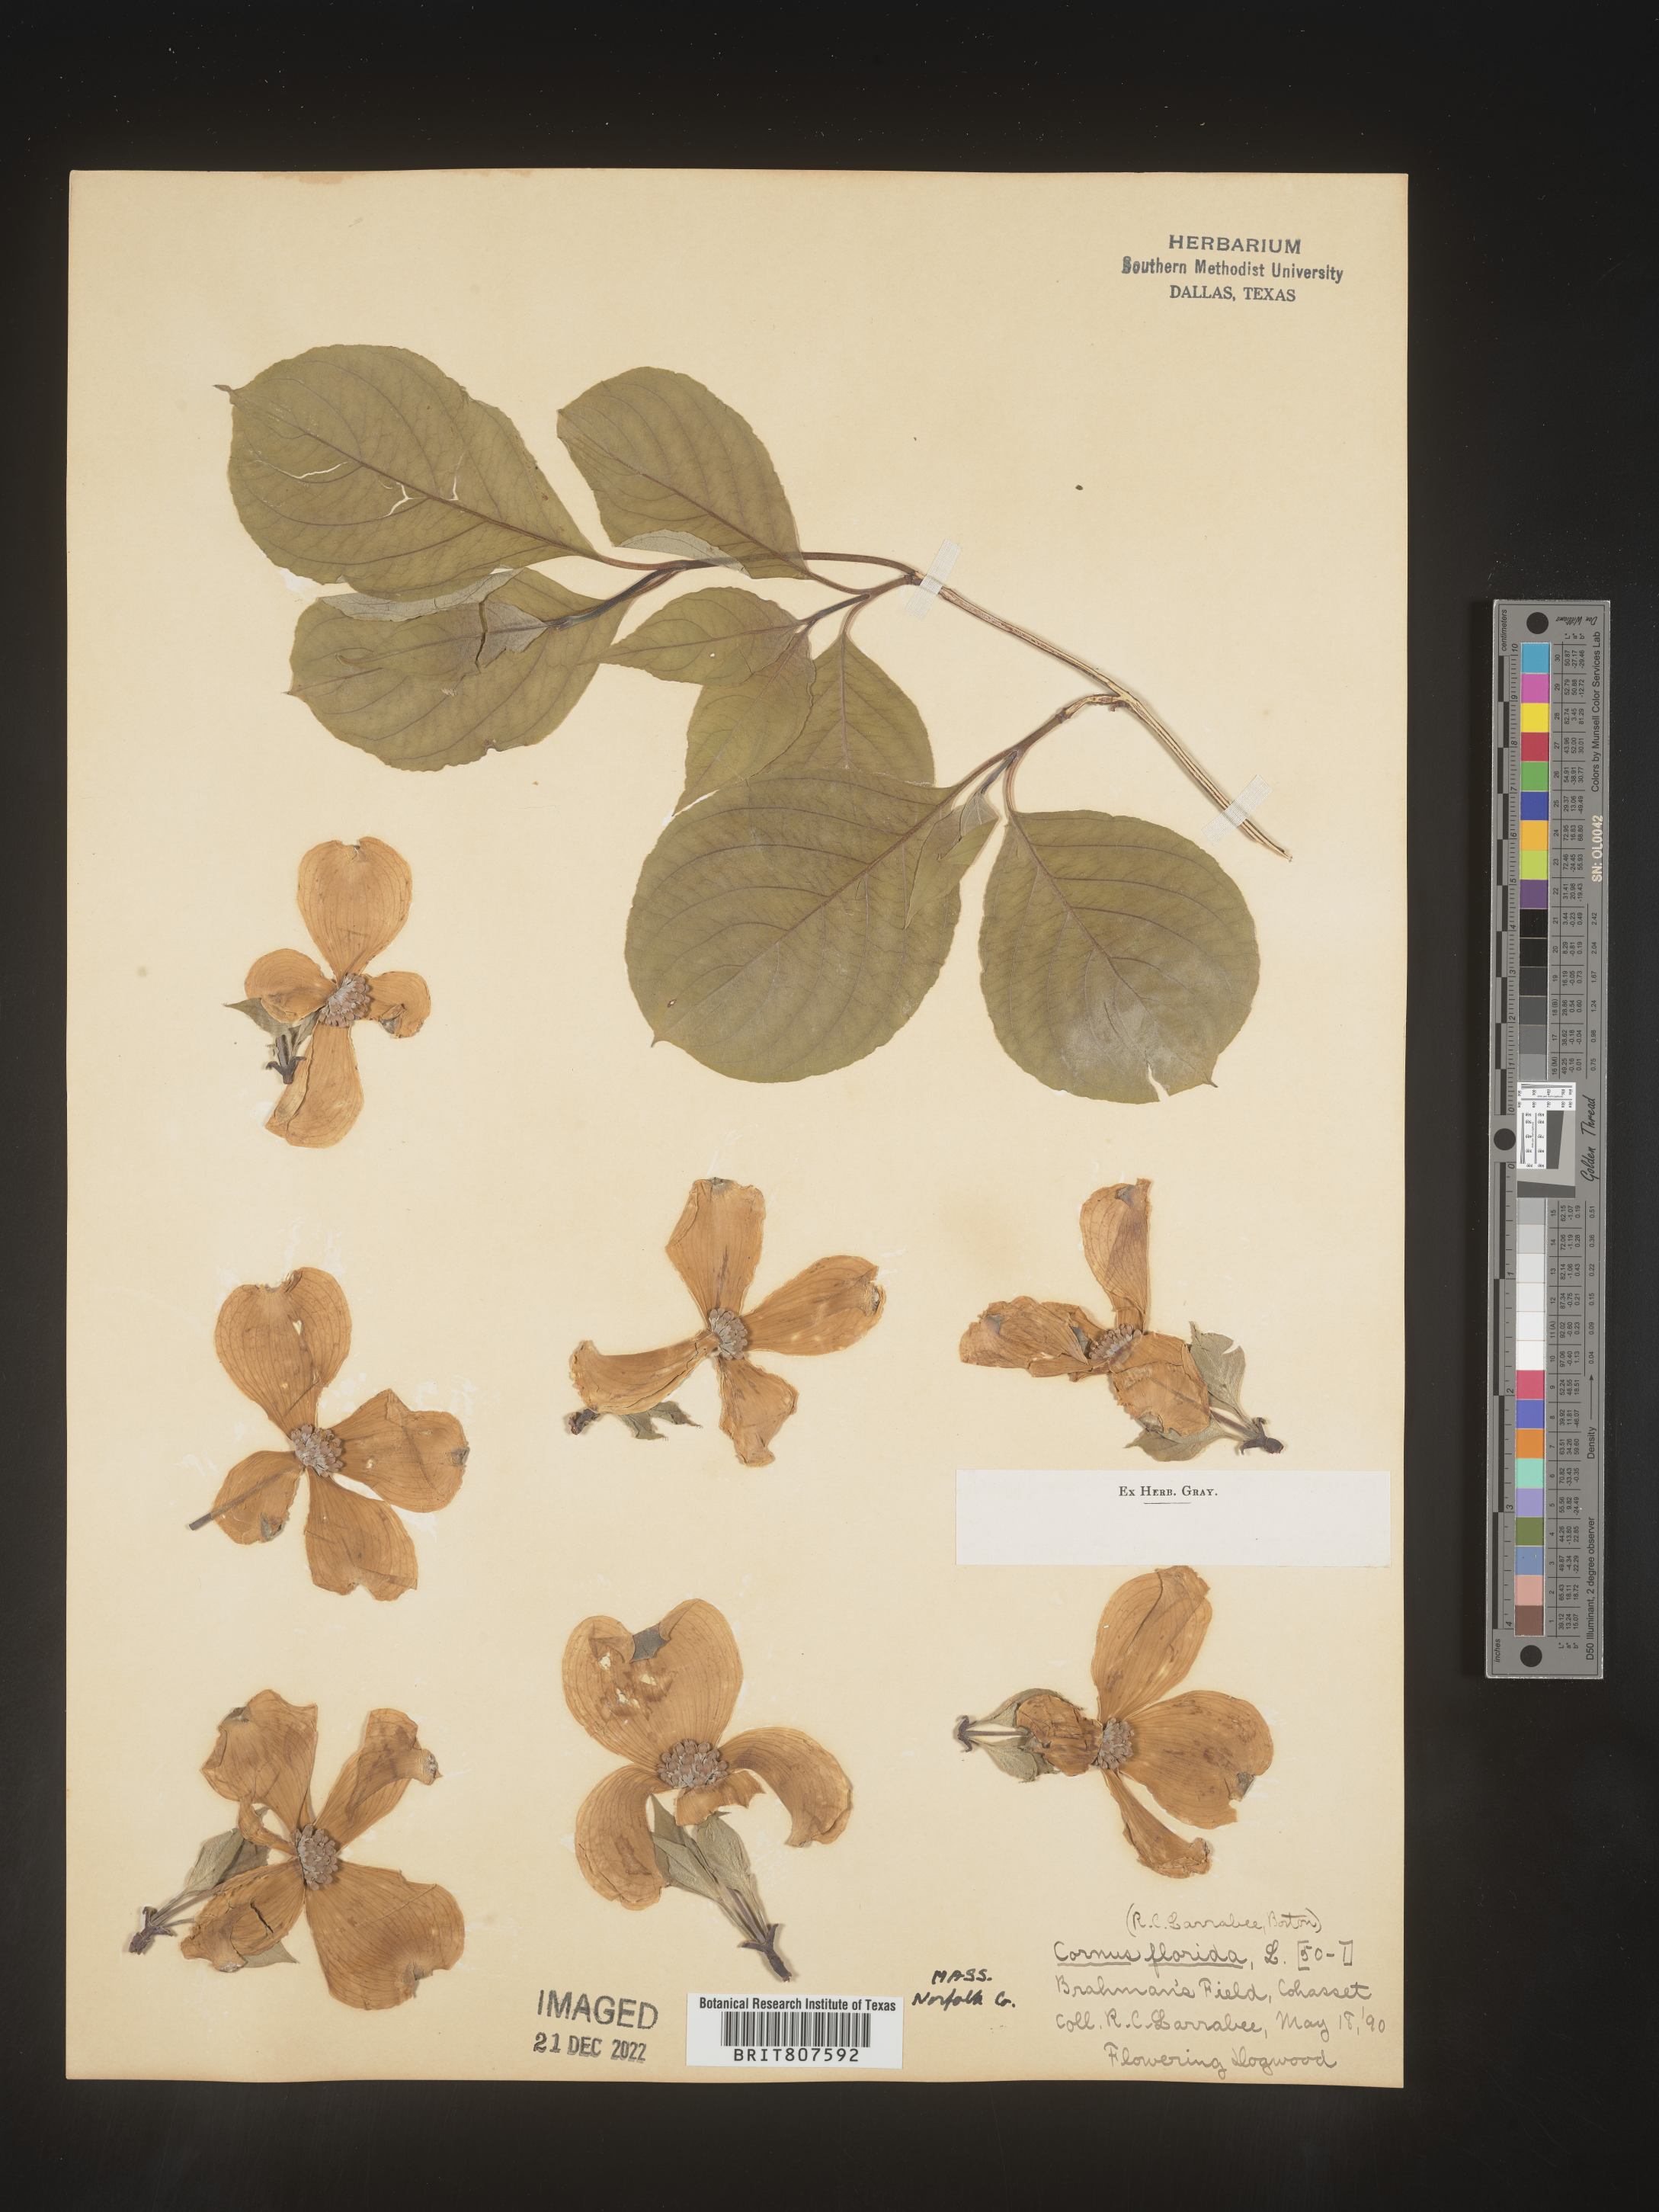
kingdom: Plantae
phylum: Tracheophyta
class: Magnoliopsida
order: Cornales
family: Cornaceae
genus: Cornus
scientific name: Cornus florida
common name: Flowering dogwood
